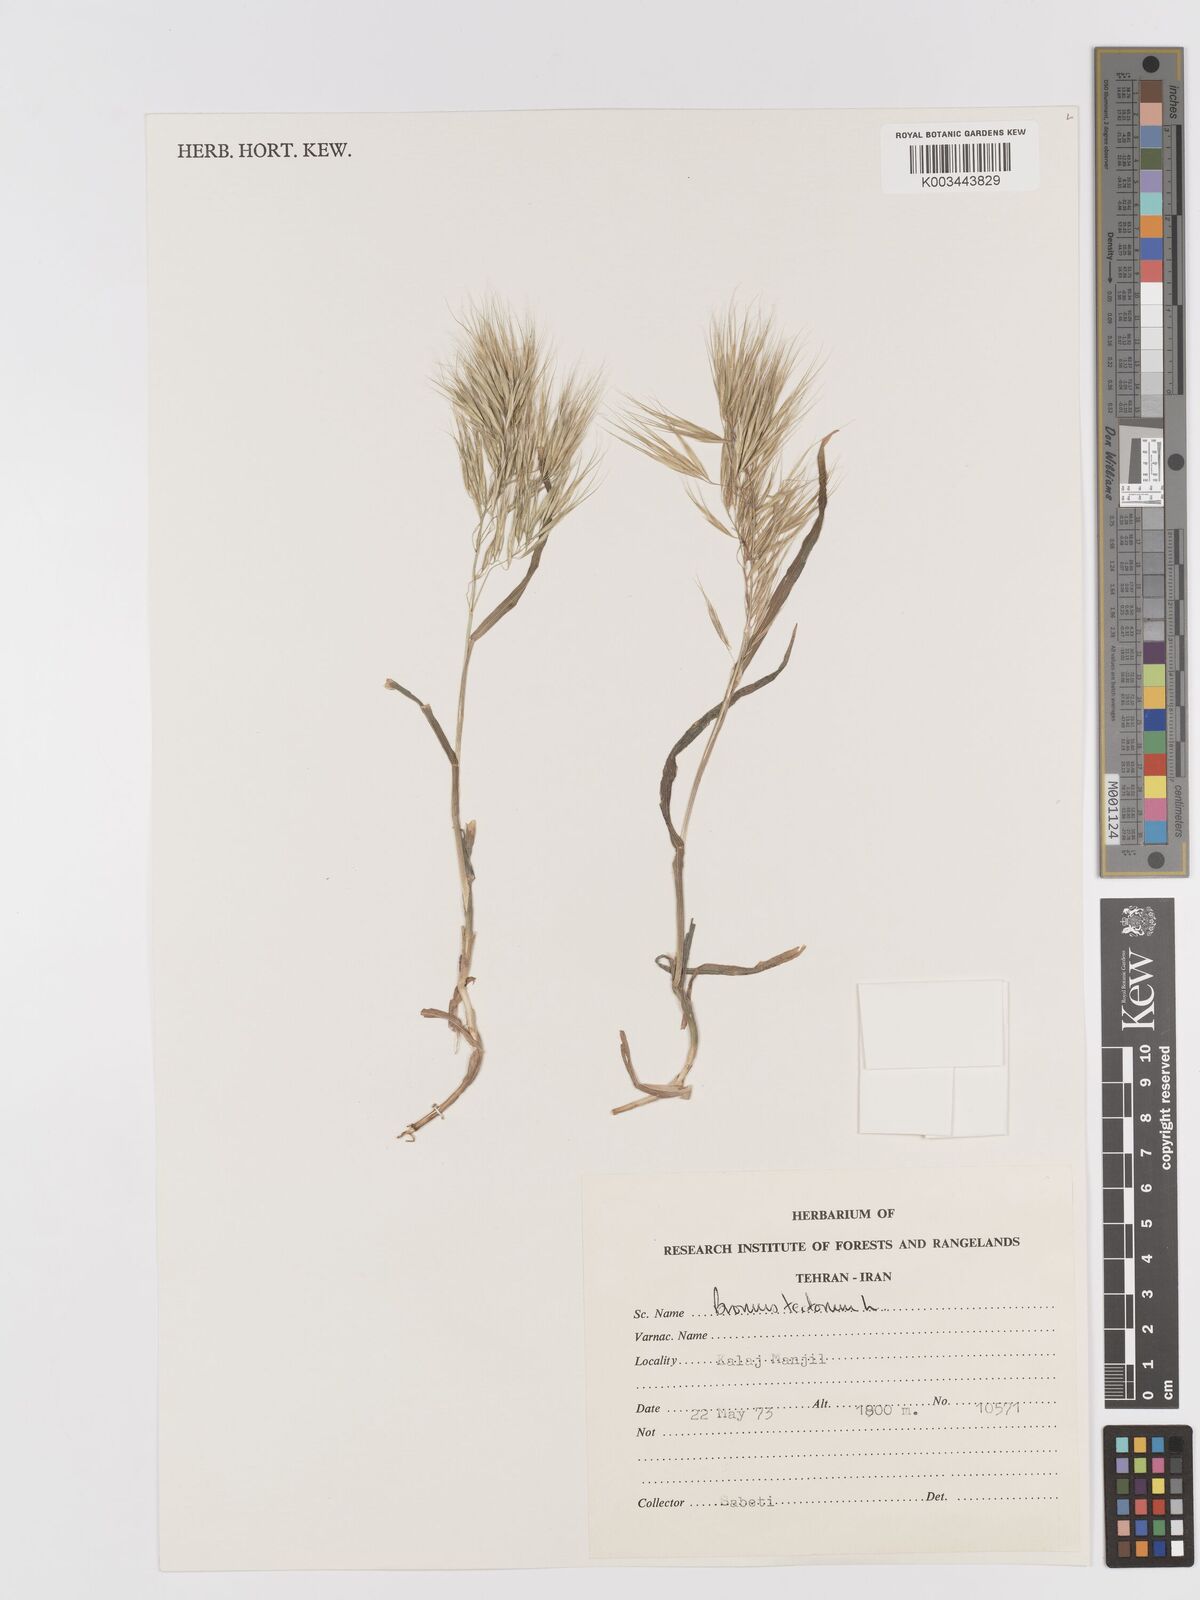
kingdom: Plantae
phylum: Tracheophyta
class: Liliopsida
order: Poales
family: Poaceae
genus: Bromus
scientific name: Bromus tectorum
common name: Cheatgrass
